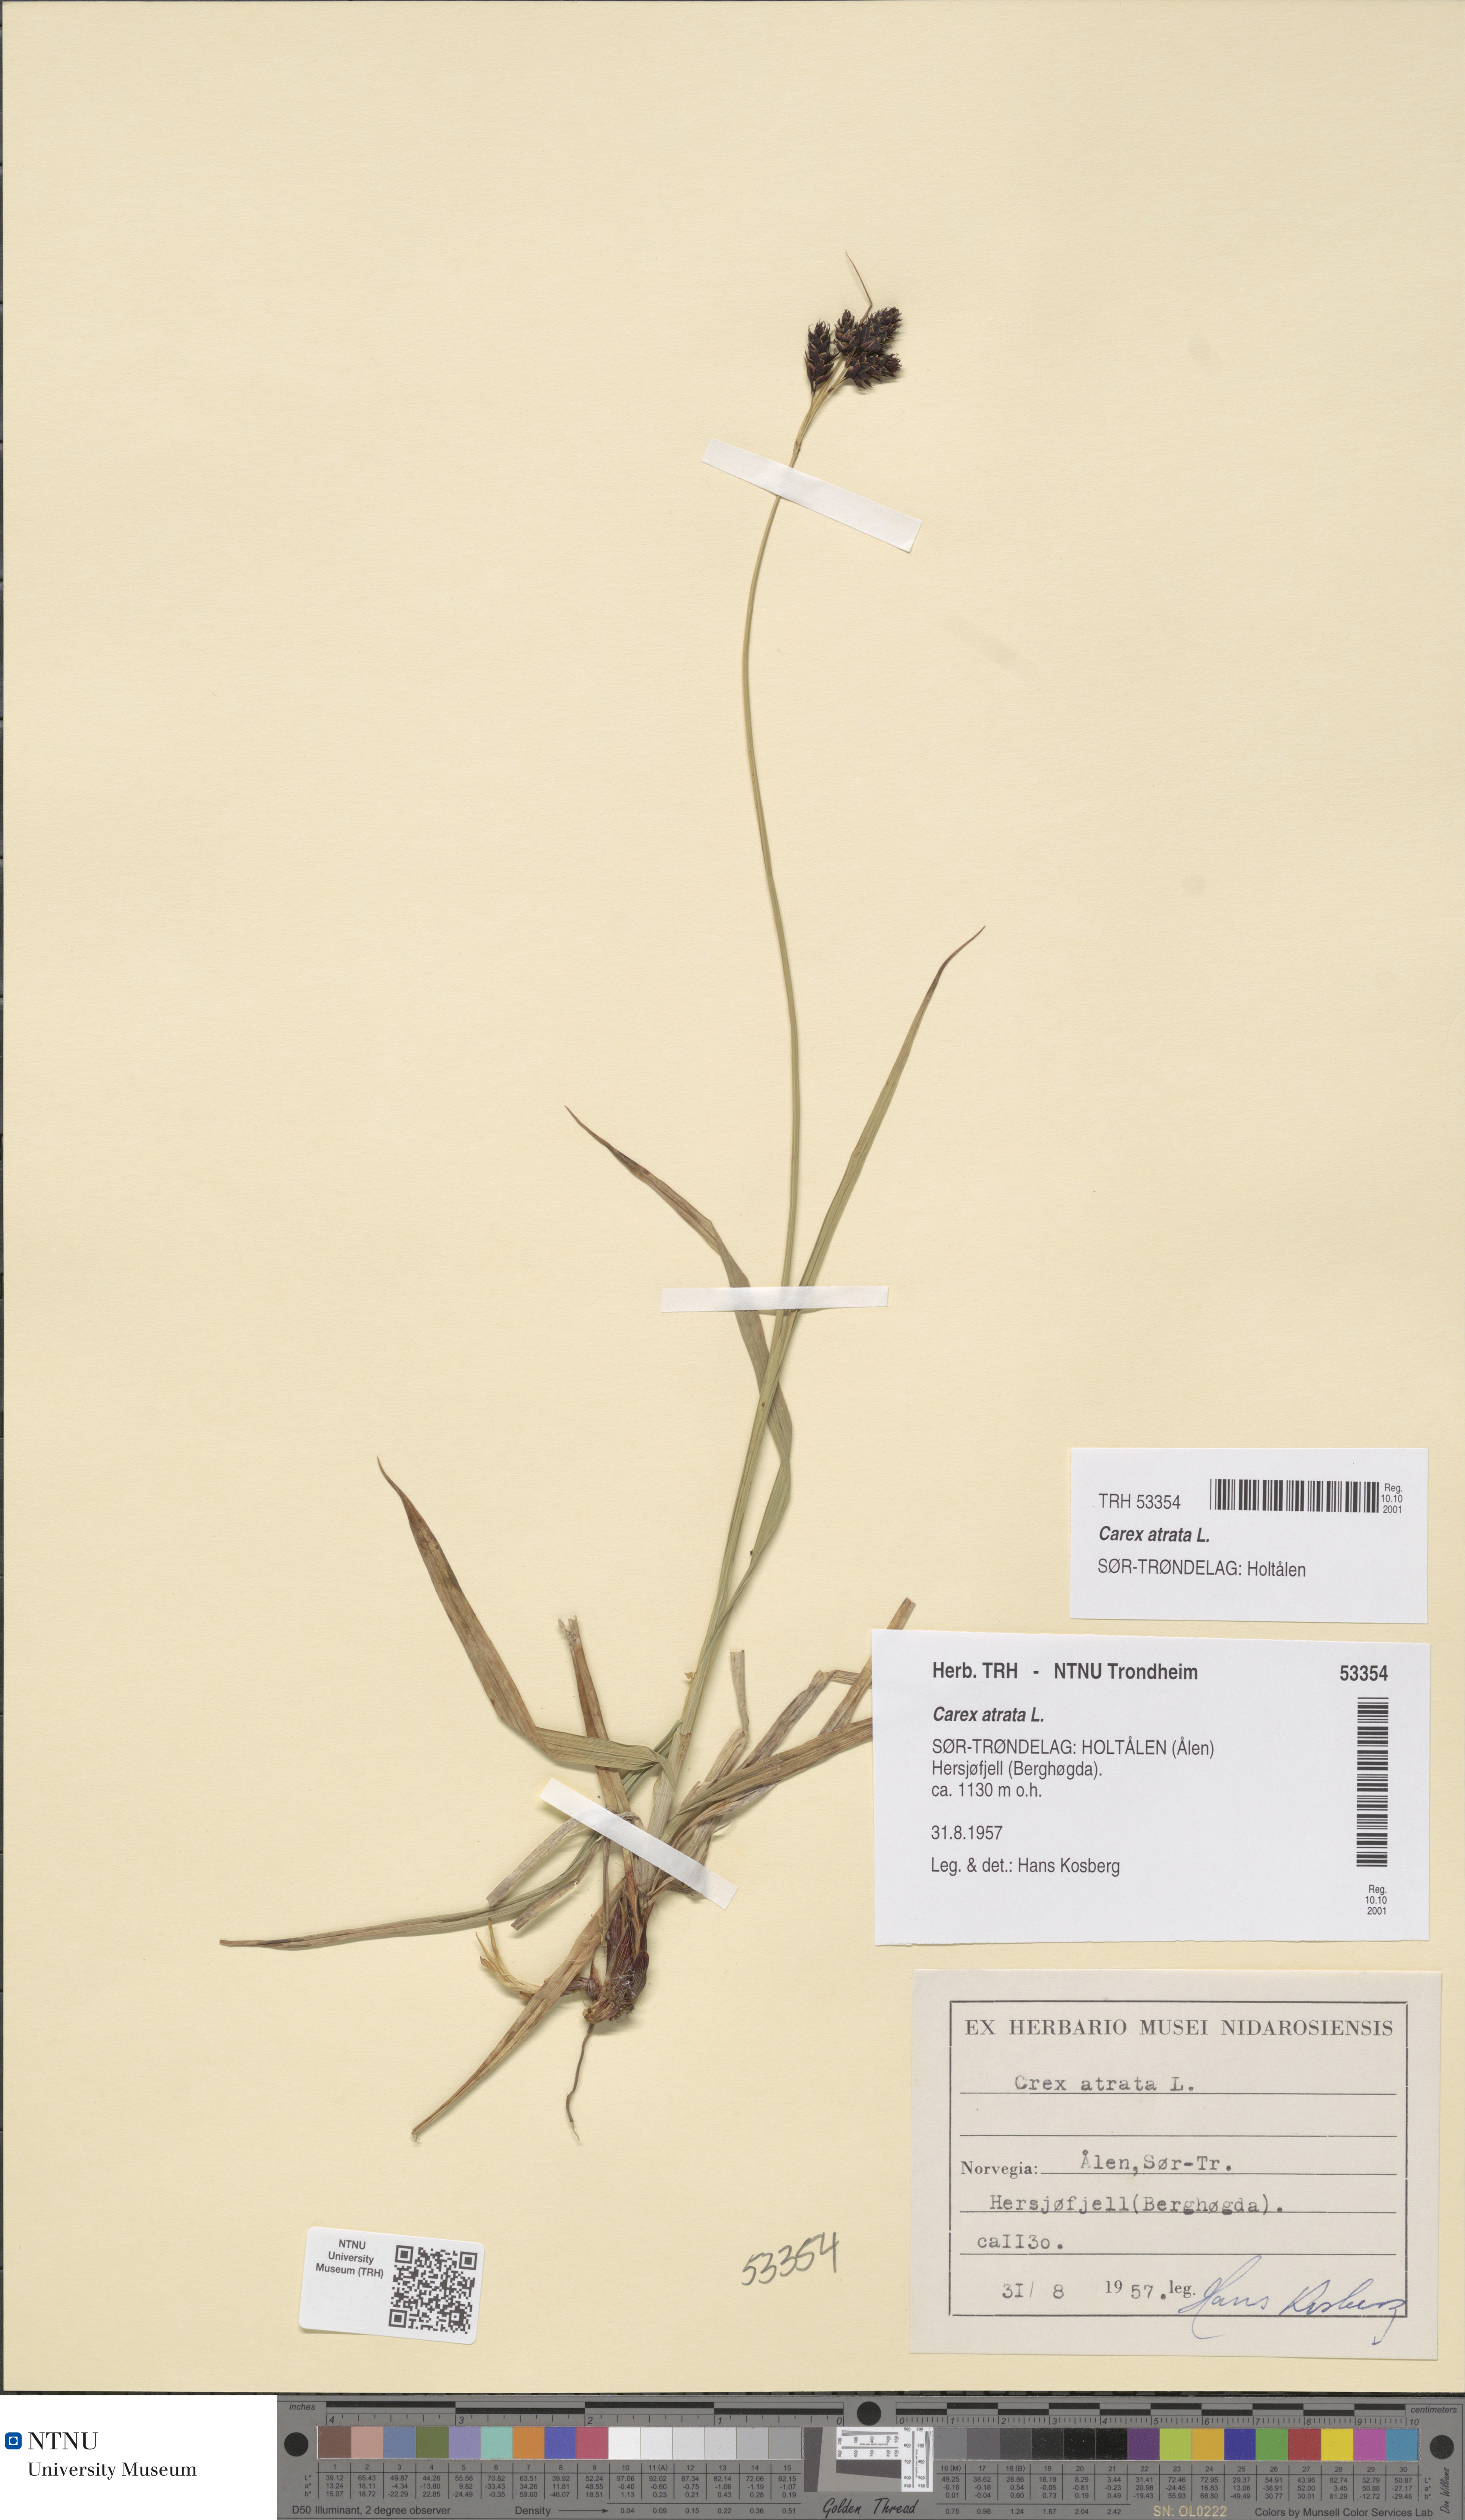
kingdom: Plantae
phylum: Tracheophyta
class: Liliopsida
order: Poales
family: Cyperaceae
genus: Carex
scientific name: Carex atrata
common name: Black alpine sedge
